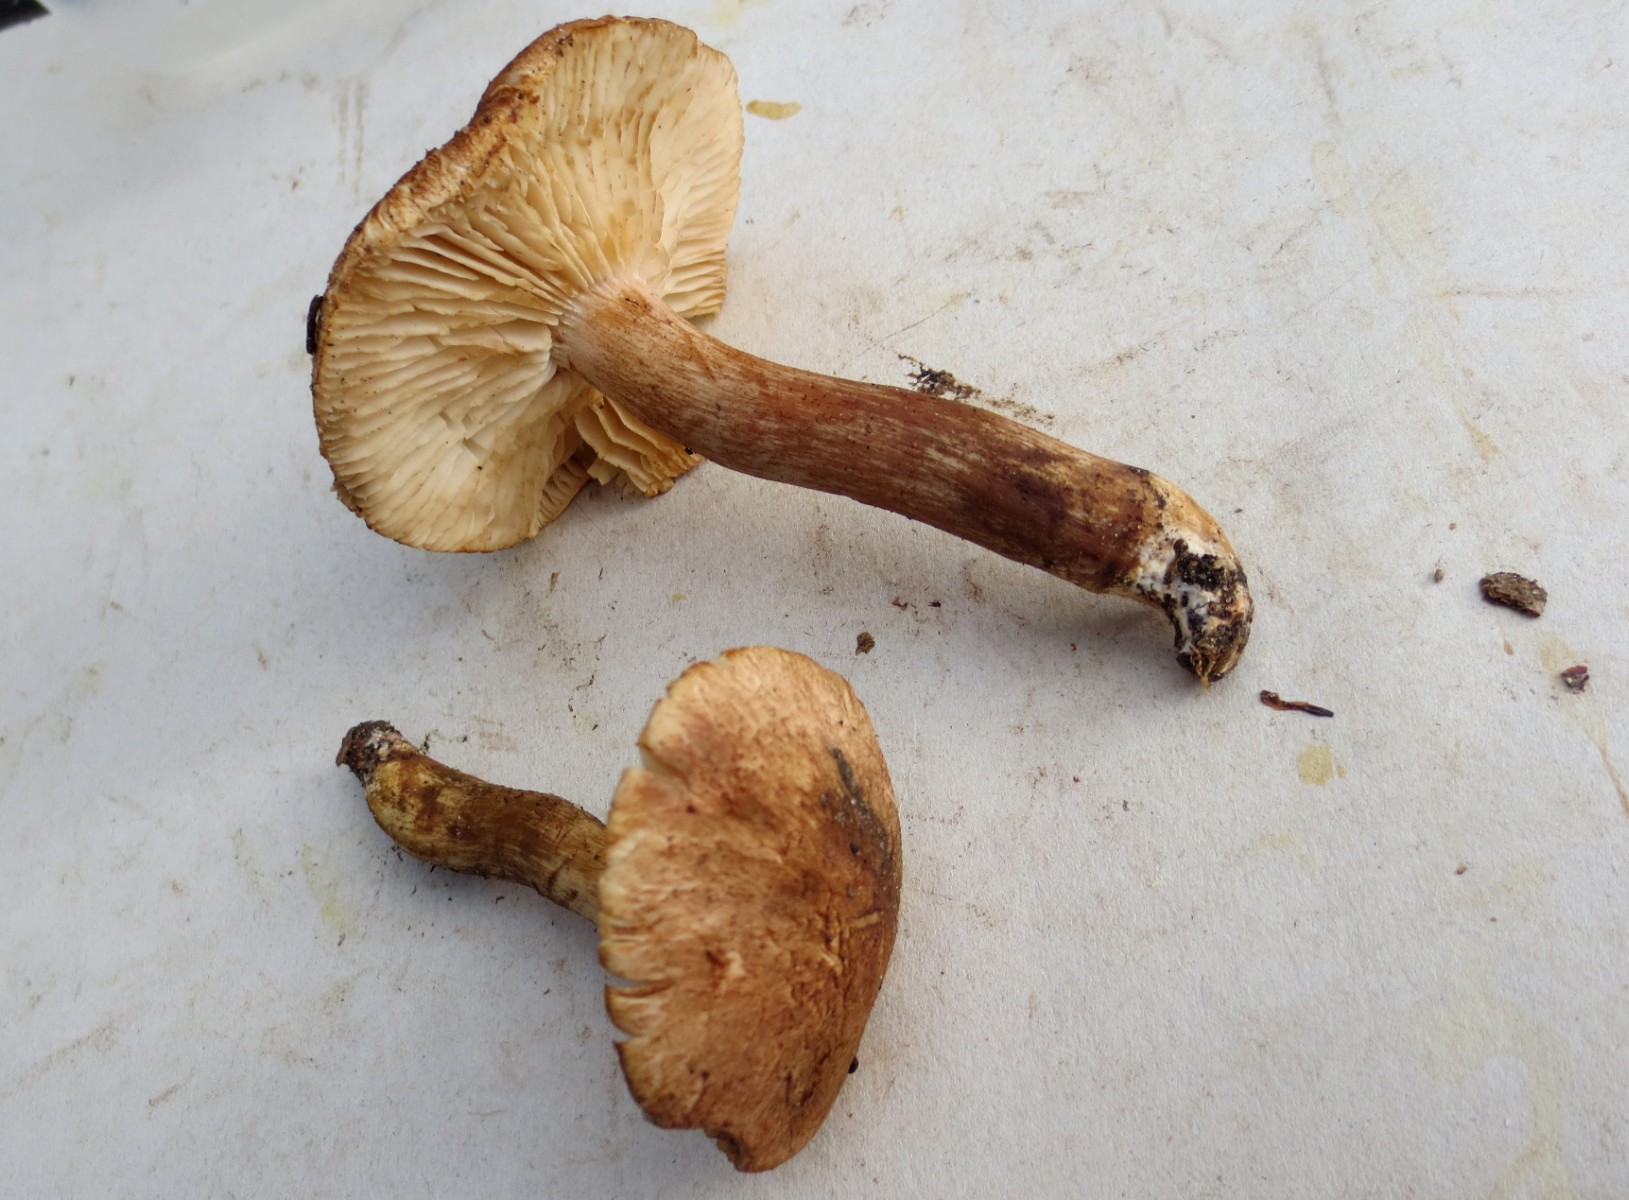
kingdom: Fungi
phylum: Basidiomycota
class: Agaricomycetes
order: Agaricales
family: Tricholomataceae
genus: Tricholoma
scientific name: Tricholoma imbricatum
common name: skællet ridderhat
